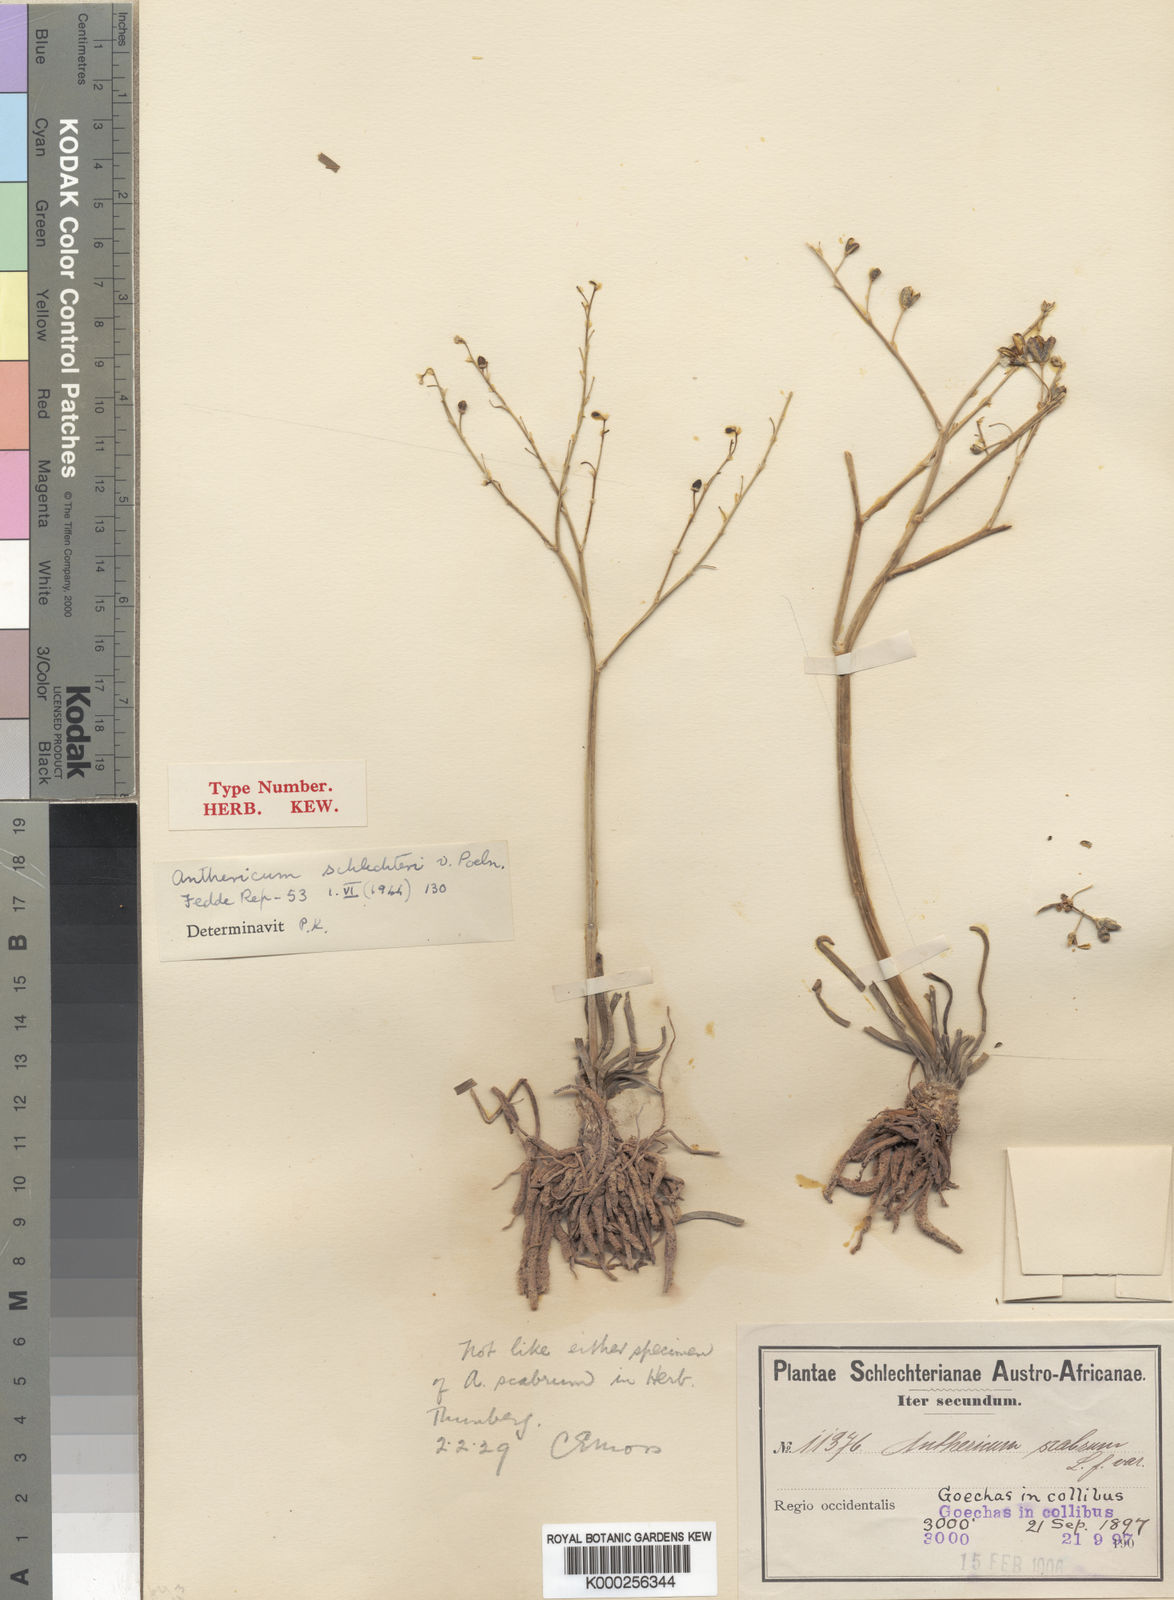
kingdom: Plantae
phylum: Tracheophyta
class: Liliopsida
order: Asparagales
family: Asphodelaceae
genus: Trachyandra
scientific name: Trachyandra bulbinifolia
